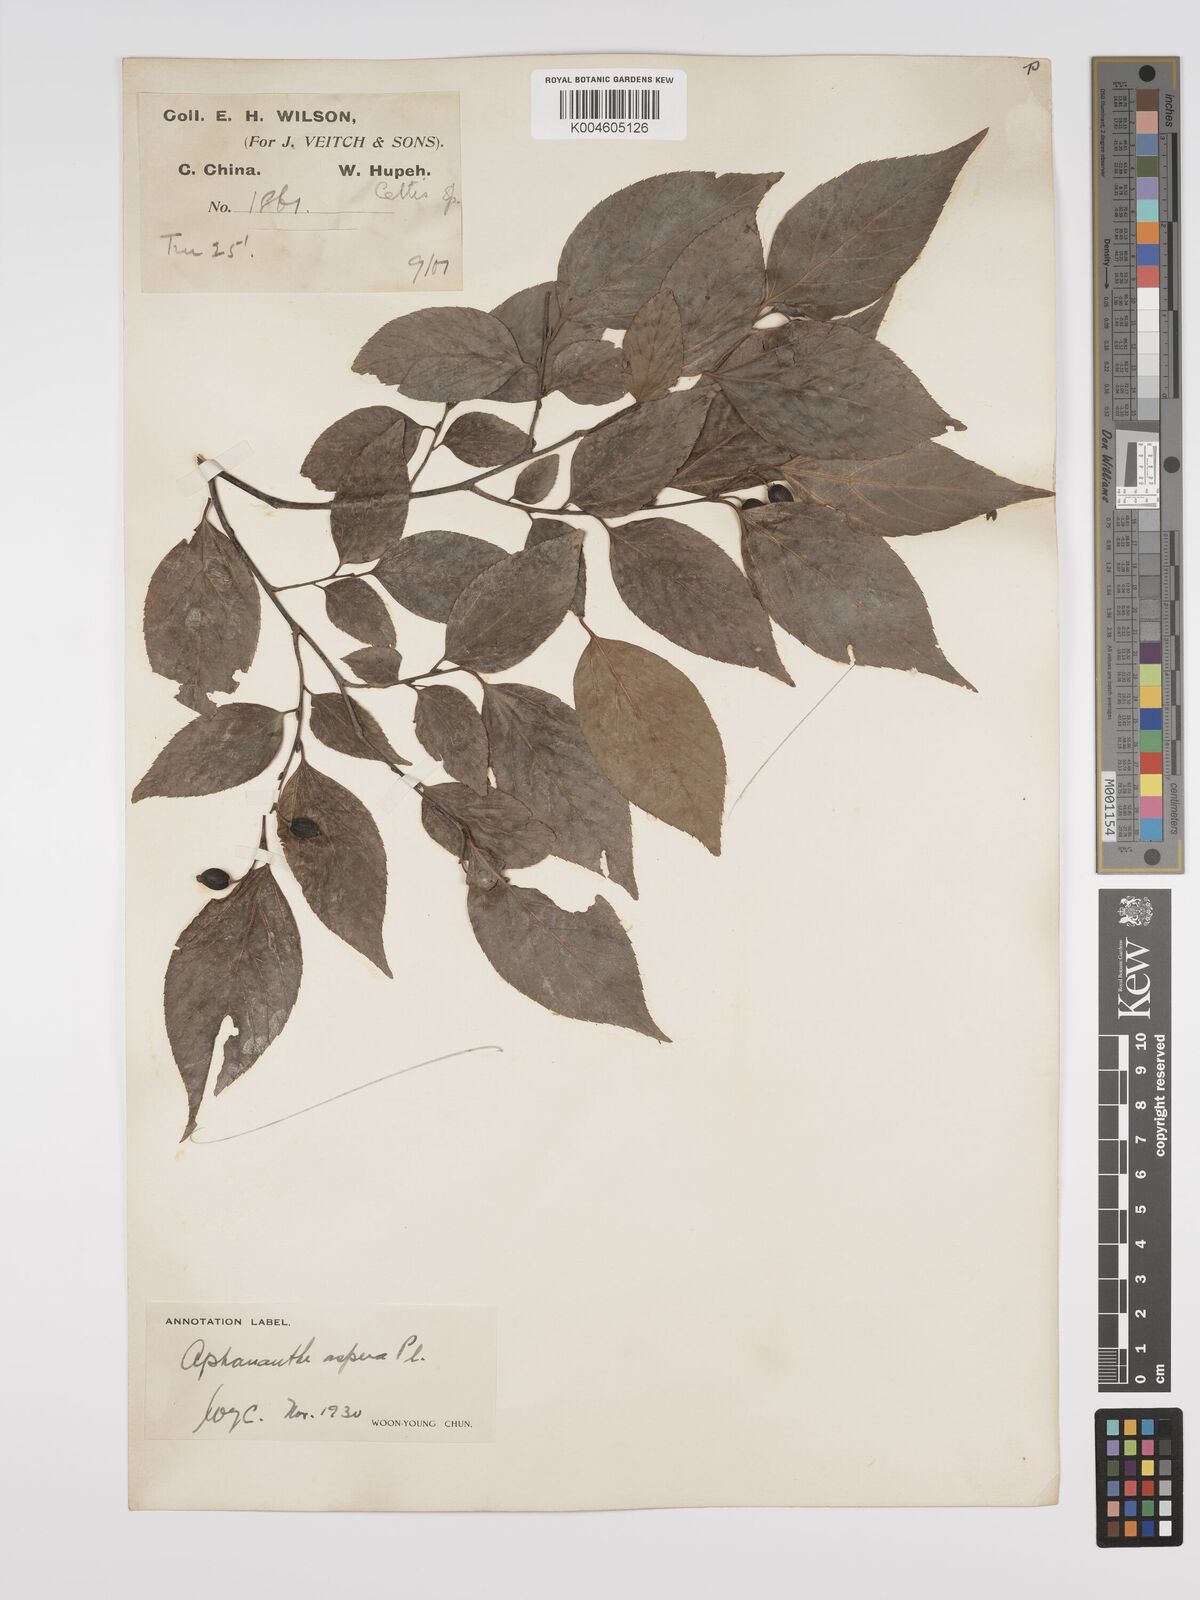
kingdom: Plantae
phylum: Tracheophyta
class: Magnoliopsida
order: Rosales
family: Cannabaceae
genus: Aphananthe
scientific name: Aphananthe aspera
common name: Mukutree
